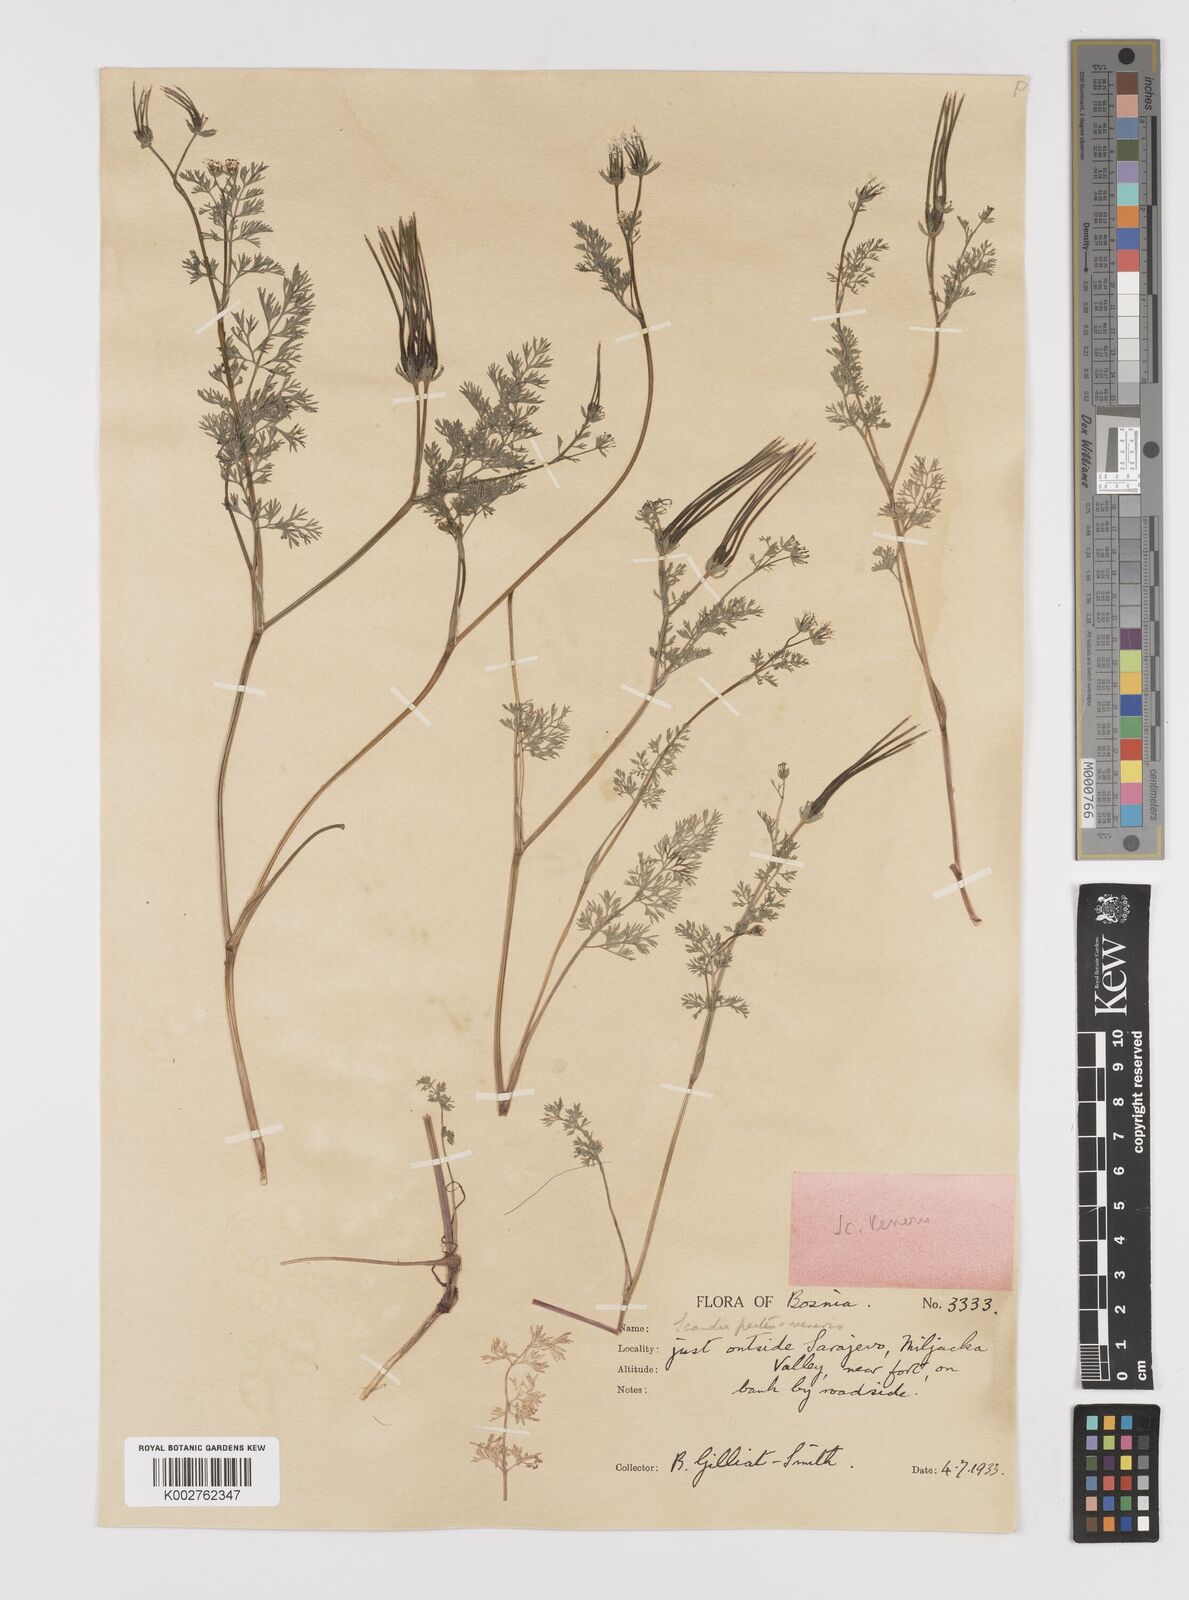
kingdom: Plantae
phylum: Tracheophyta
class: Magnoliopsida
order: Apiales
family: Apiaceae
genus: Scandix
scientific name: Scandix pecten-veneris
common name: Shepherd's-needle
